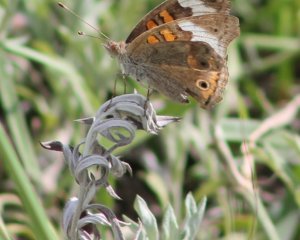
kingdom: Animalia
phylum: Arthropoda
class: Insecta
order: Lepidoptera
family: Nymphalidae
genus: Junonia
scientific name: Junonia coenia
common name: Common Buckeye
